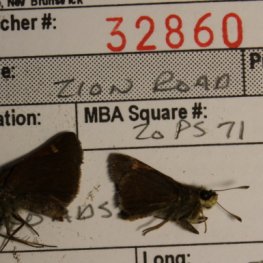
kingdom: Animalia
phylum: Arthropoda
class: Insecta
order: Lepidoptera
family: Hesperiidae
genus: Polites
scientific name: Polites themistocles
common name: Tawny-edged Skipper
